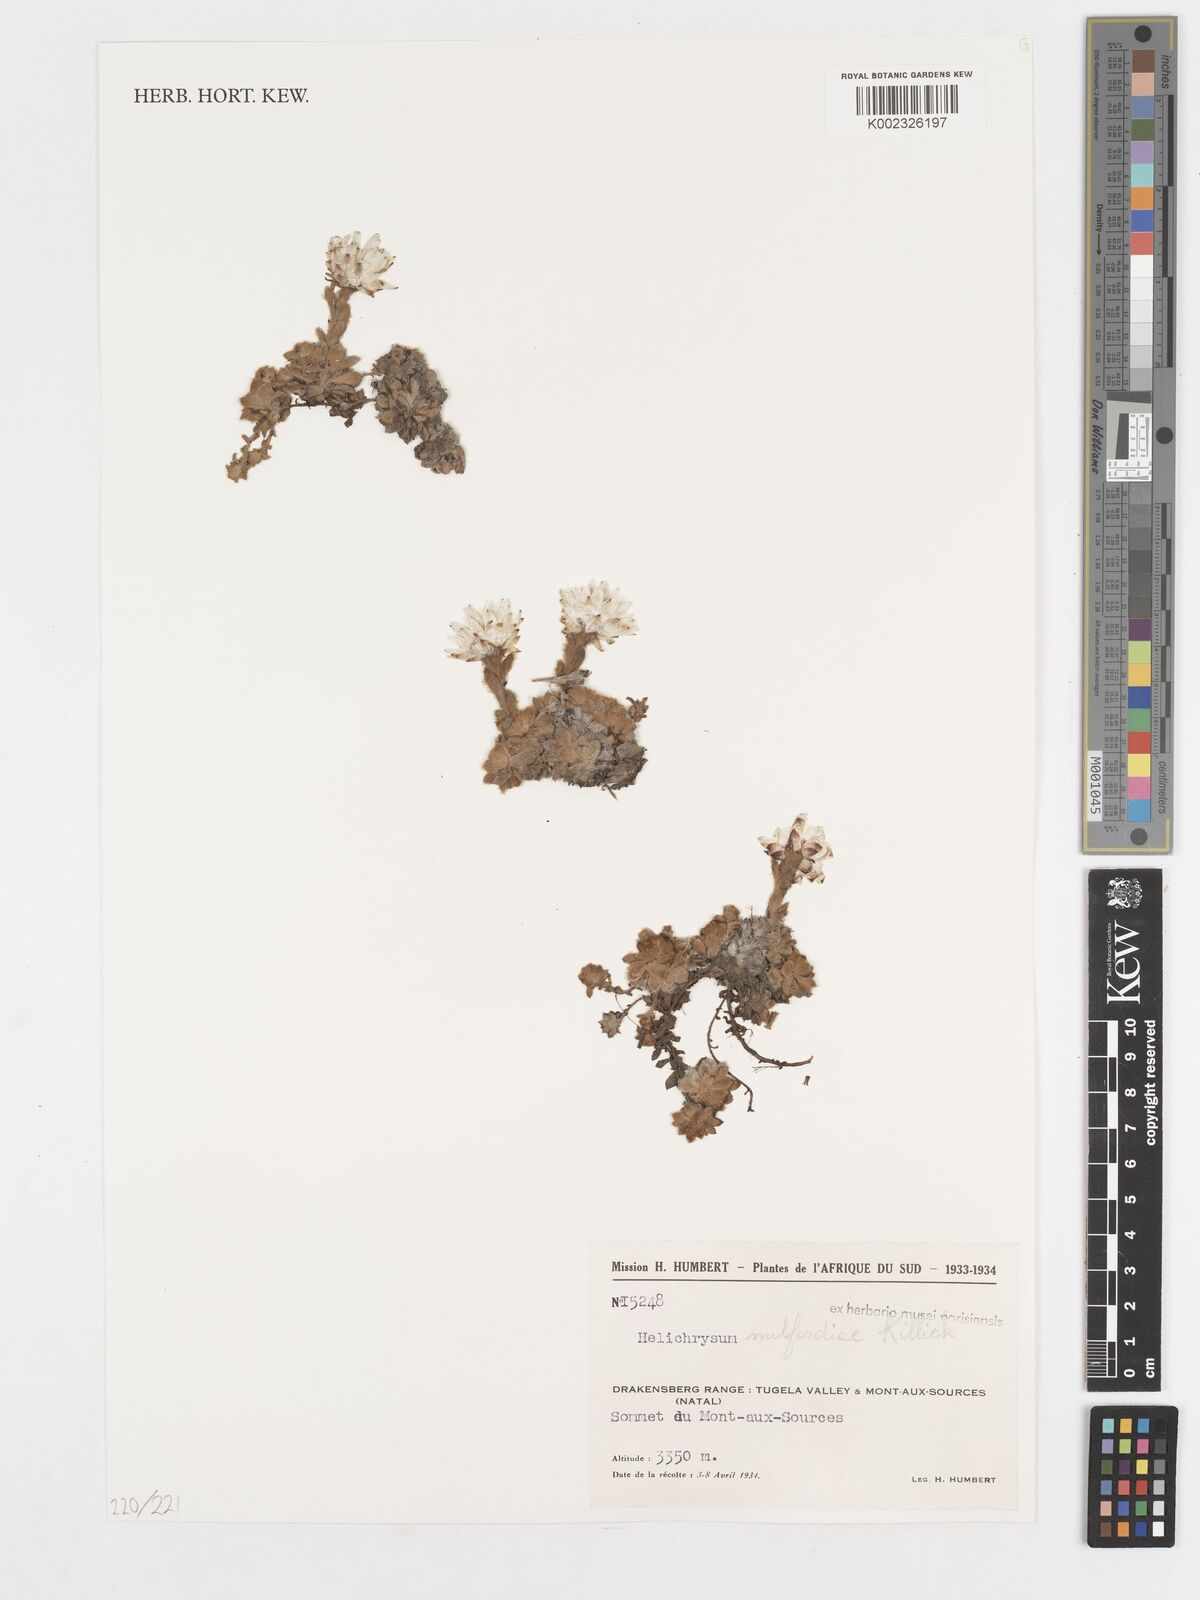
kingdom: Plantae
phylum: Tracheophyta
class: Magnoliopsida
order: Asterales
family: Asteraceae
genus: Helichrysum
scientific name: Helichrysum milfordiae
